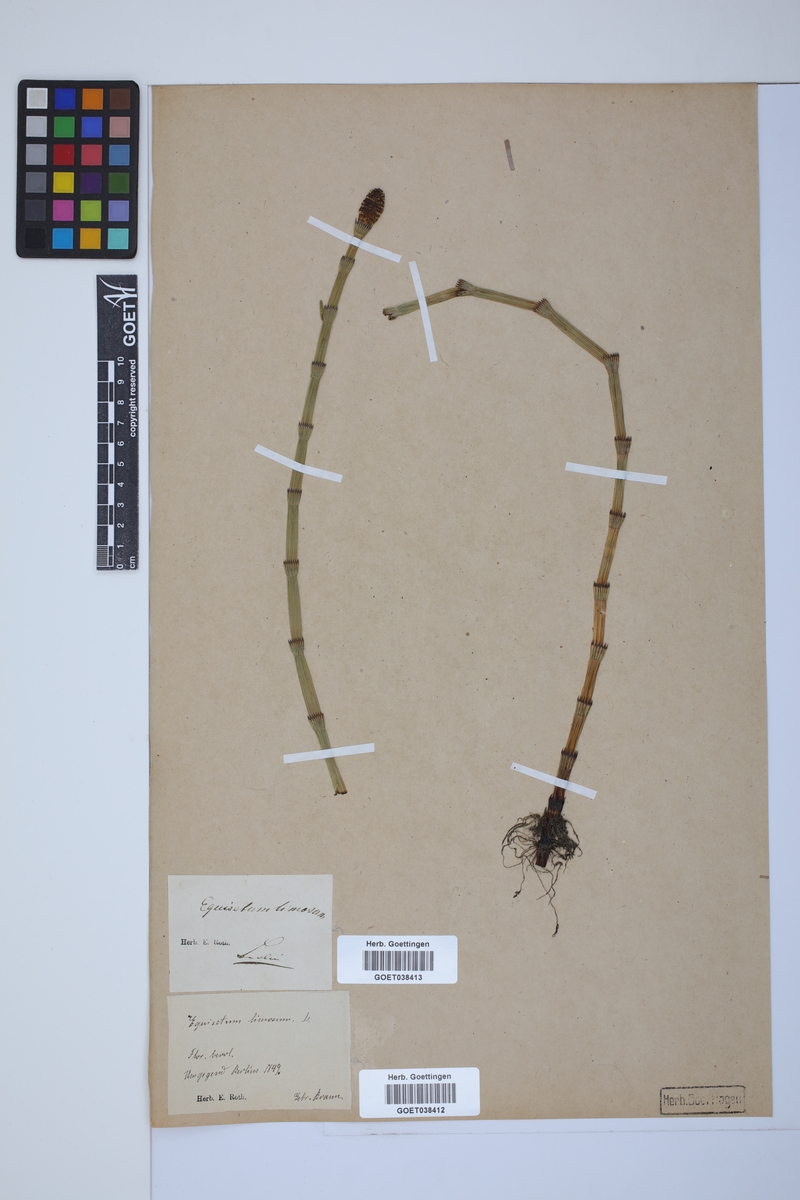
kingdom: Plantae
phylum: Tracheophyta
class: Polypodiopsida
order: Equisetales
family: Equisetaceae
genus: Equisetum
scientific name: Equisetum fluviatile
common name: Water horsetail
